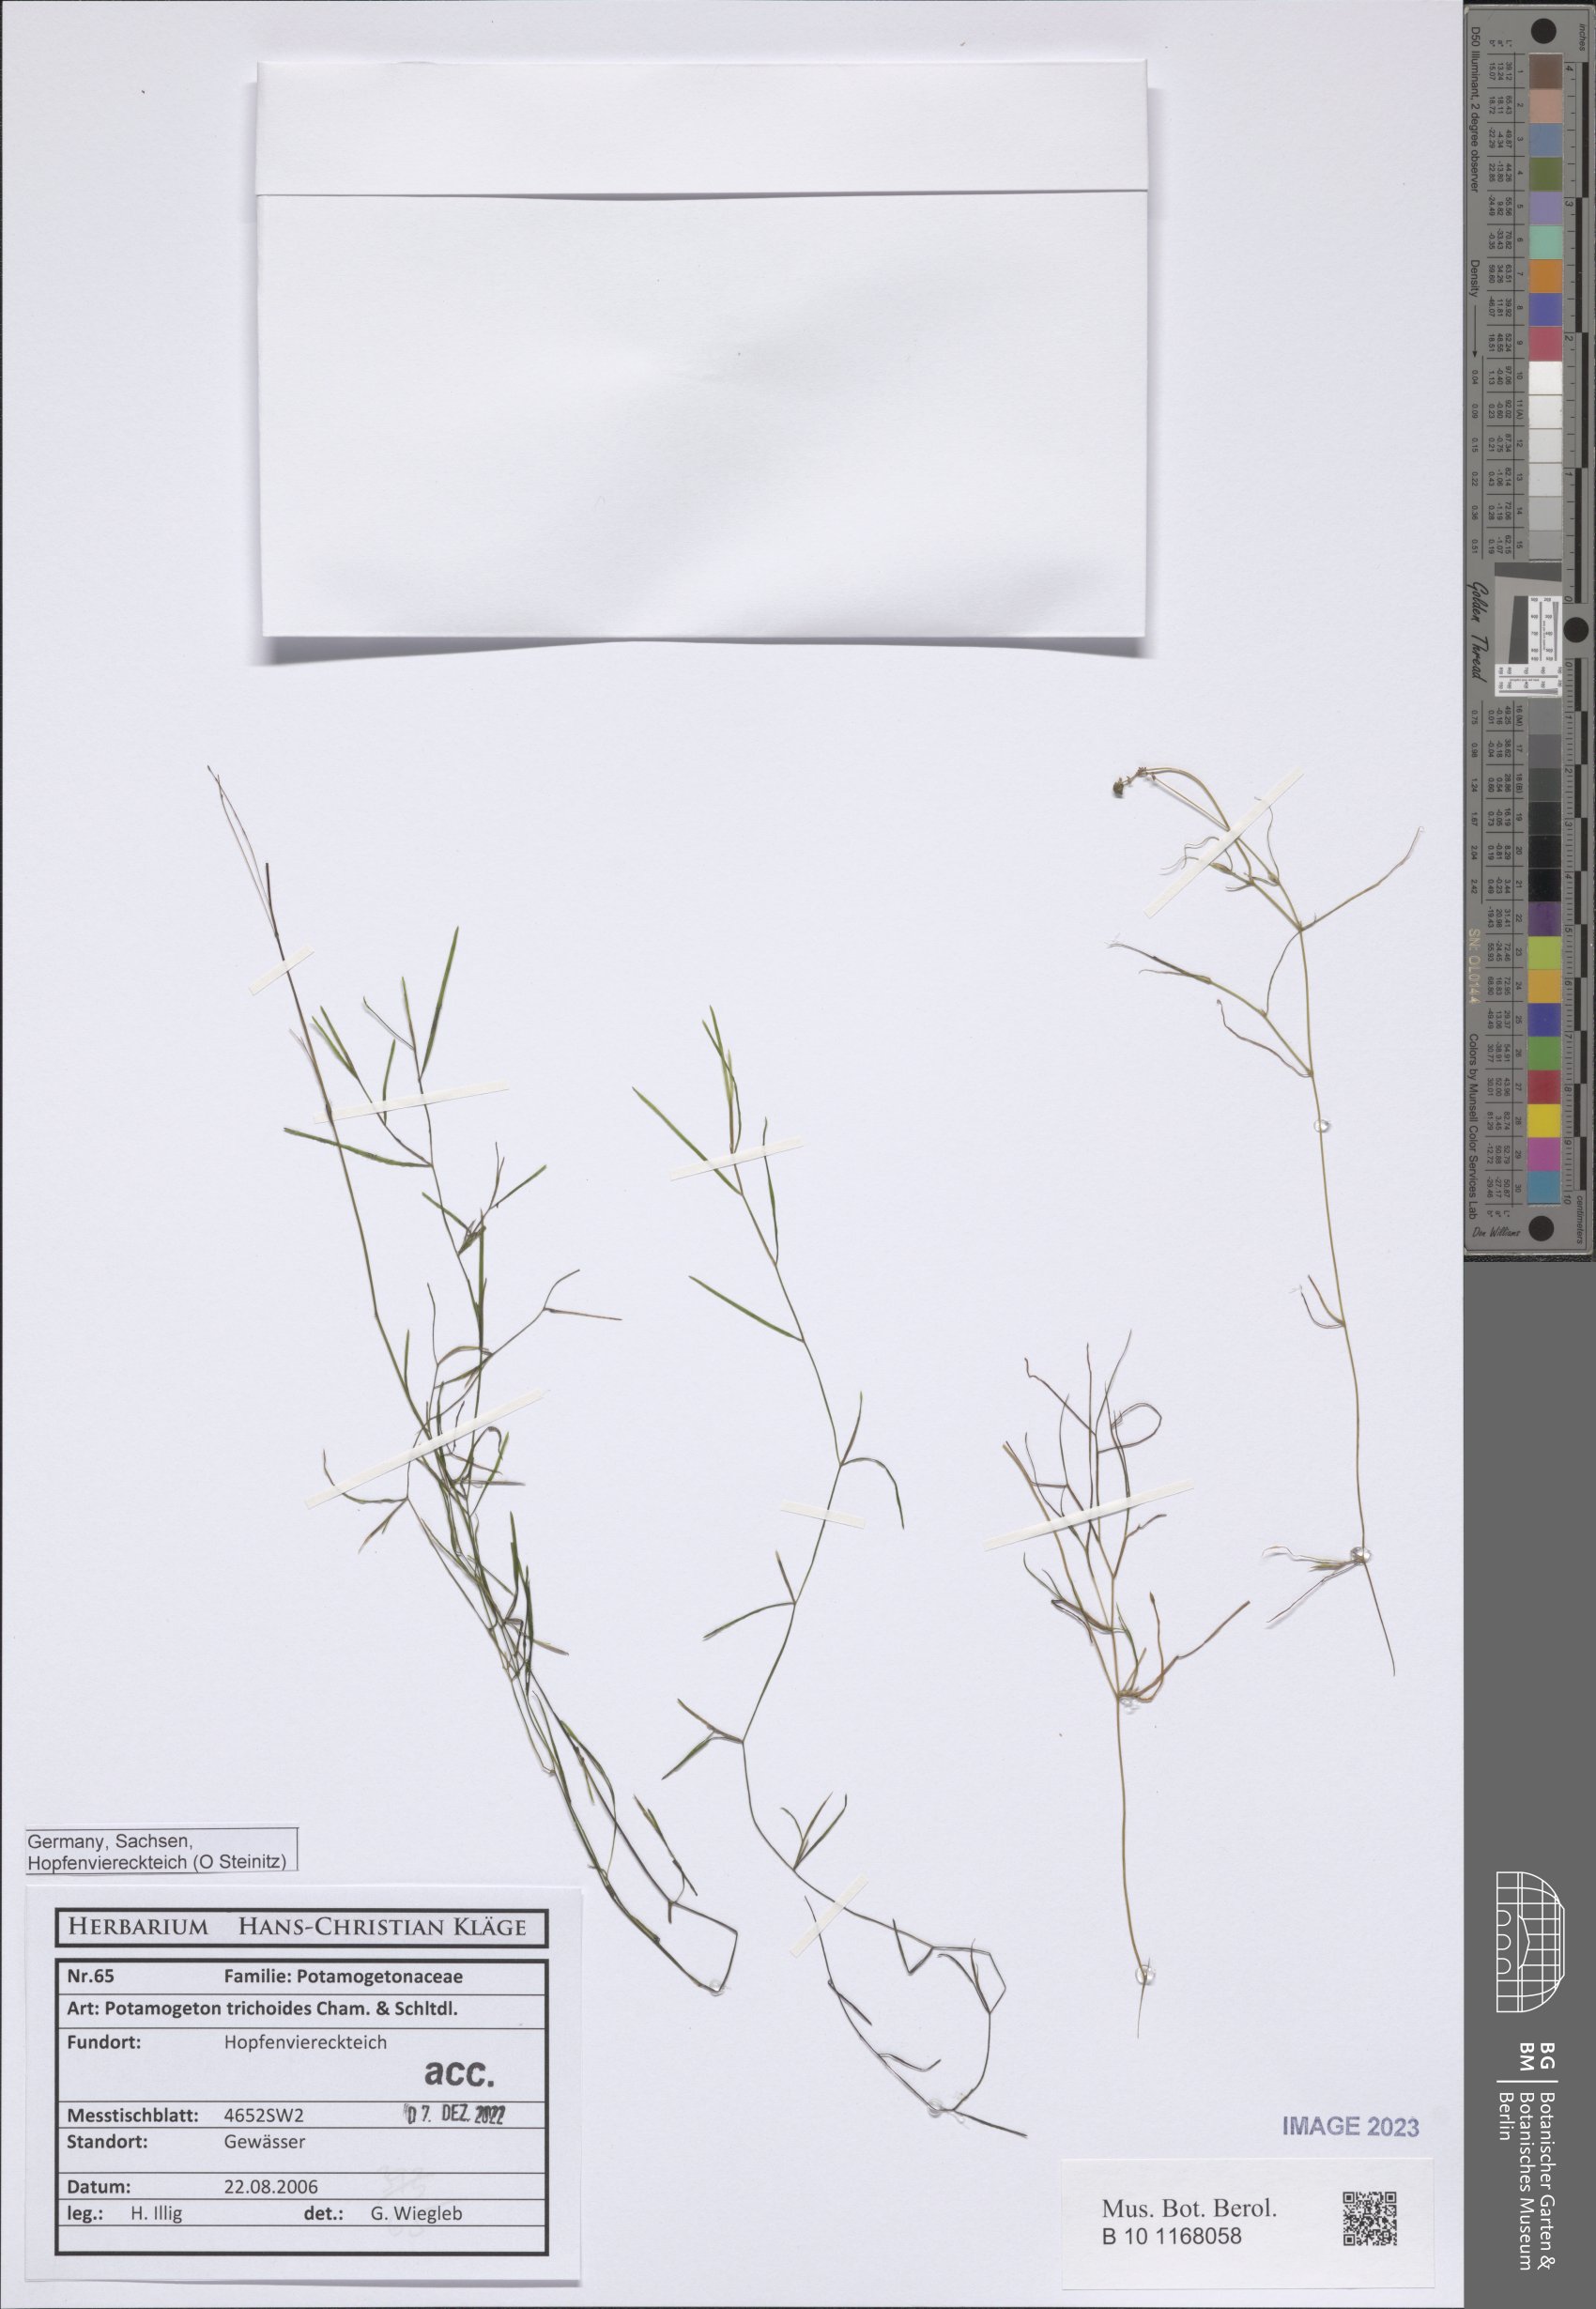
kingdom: Plantae
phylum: Tracheophyta
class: Liliopsida
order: Alismatales
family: Potamogetonaceae
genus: Potamogeton
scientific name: Potamogeton trichoides
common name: Hairlike pondweed
